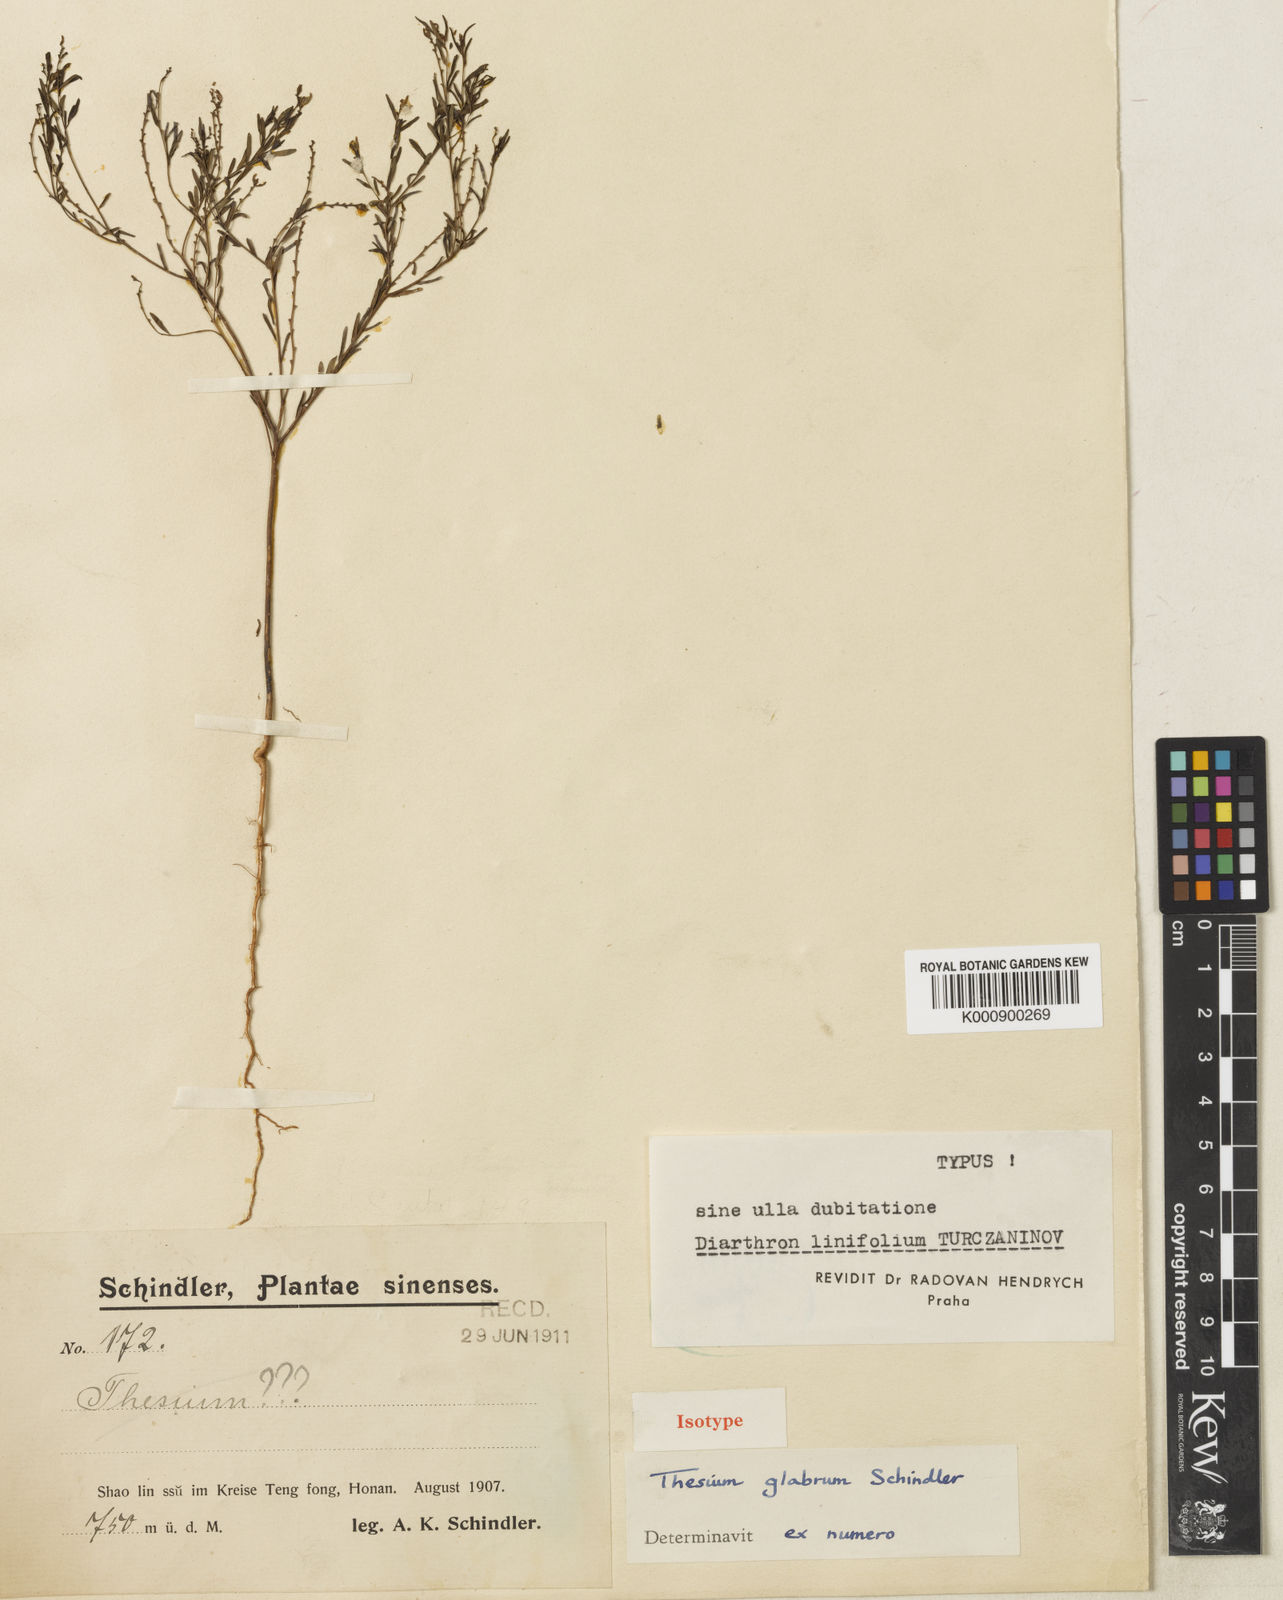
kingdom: Plantae
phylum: Tracheophyta
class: Magnoliopsida
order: Malvales
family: Thymelaeaceae
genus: Diarthron
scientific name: Diarthron linifolium
